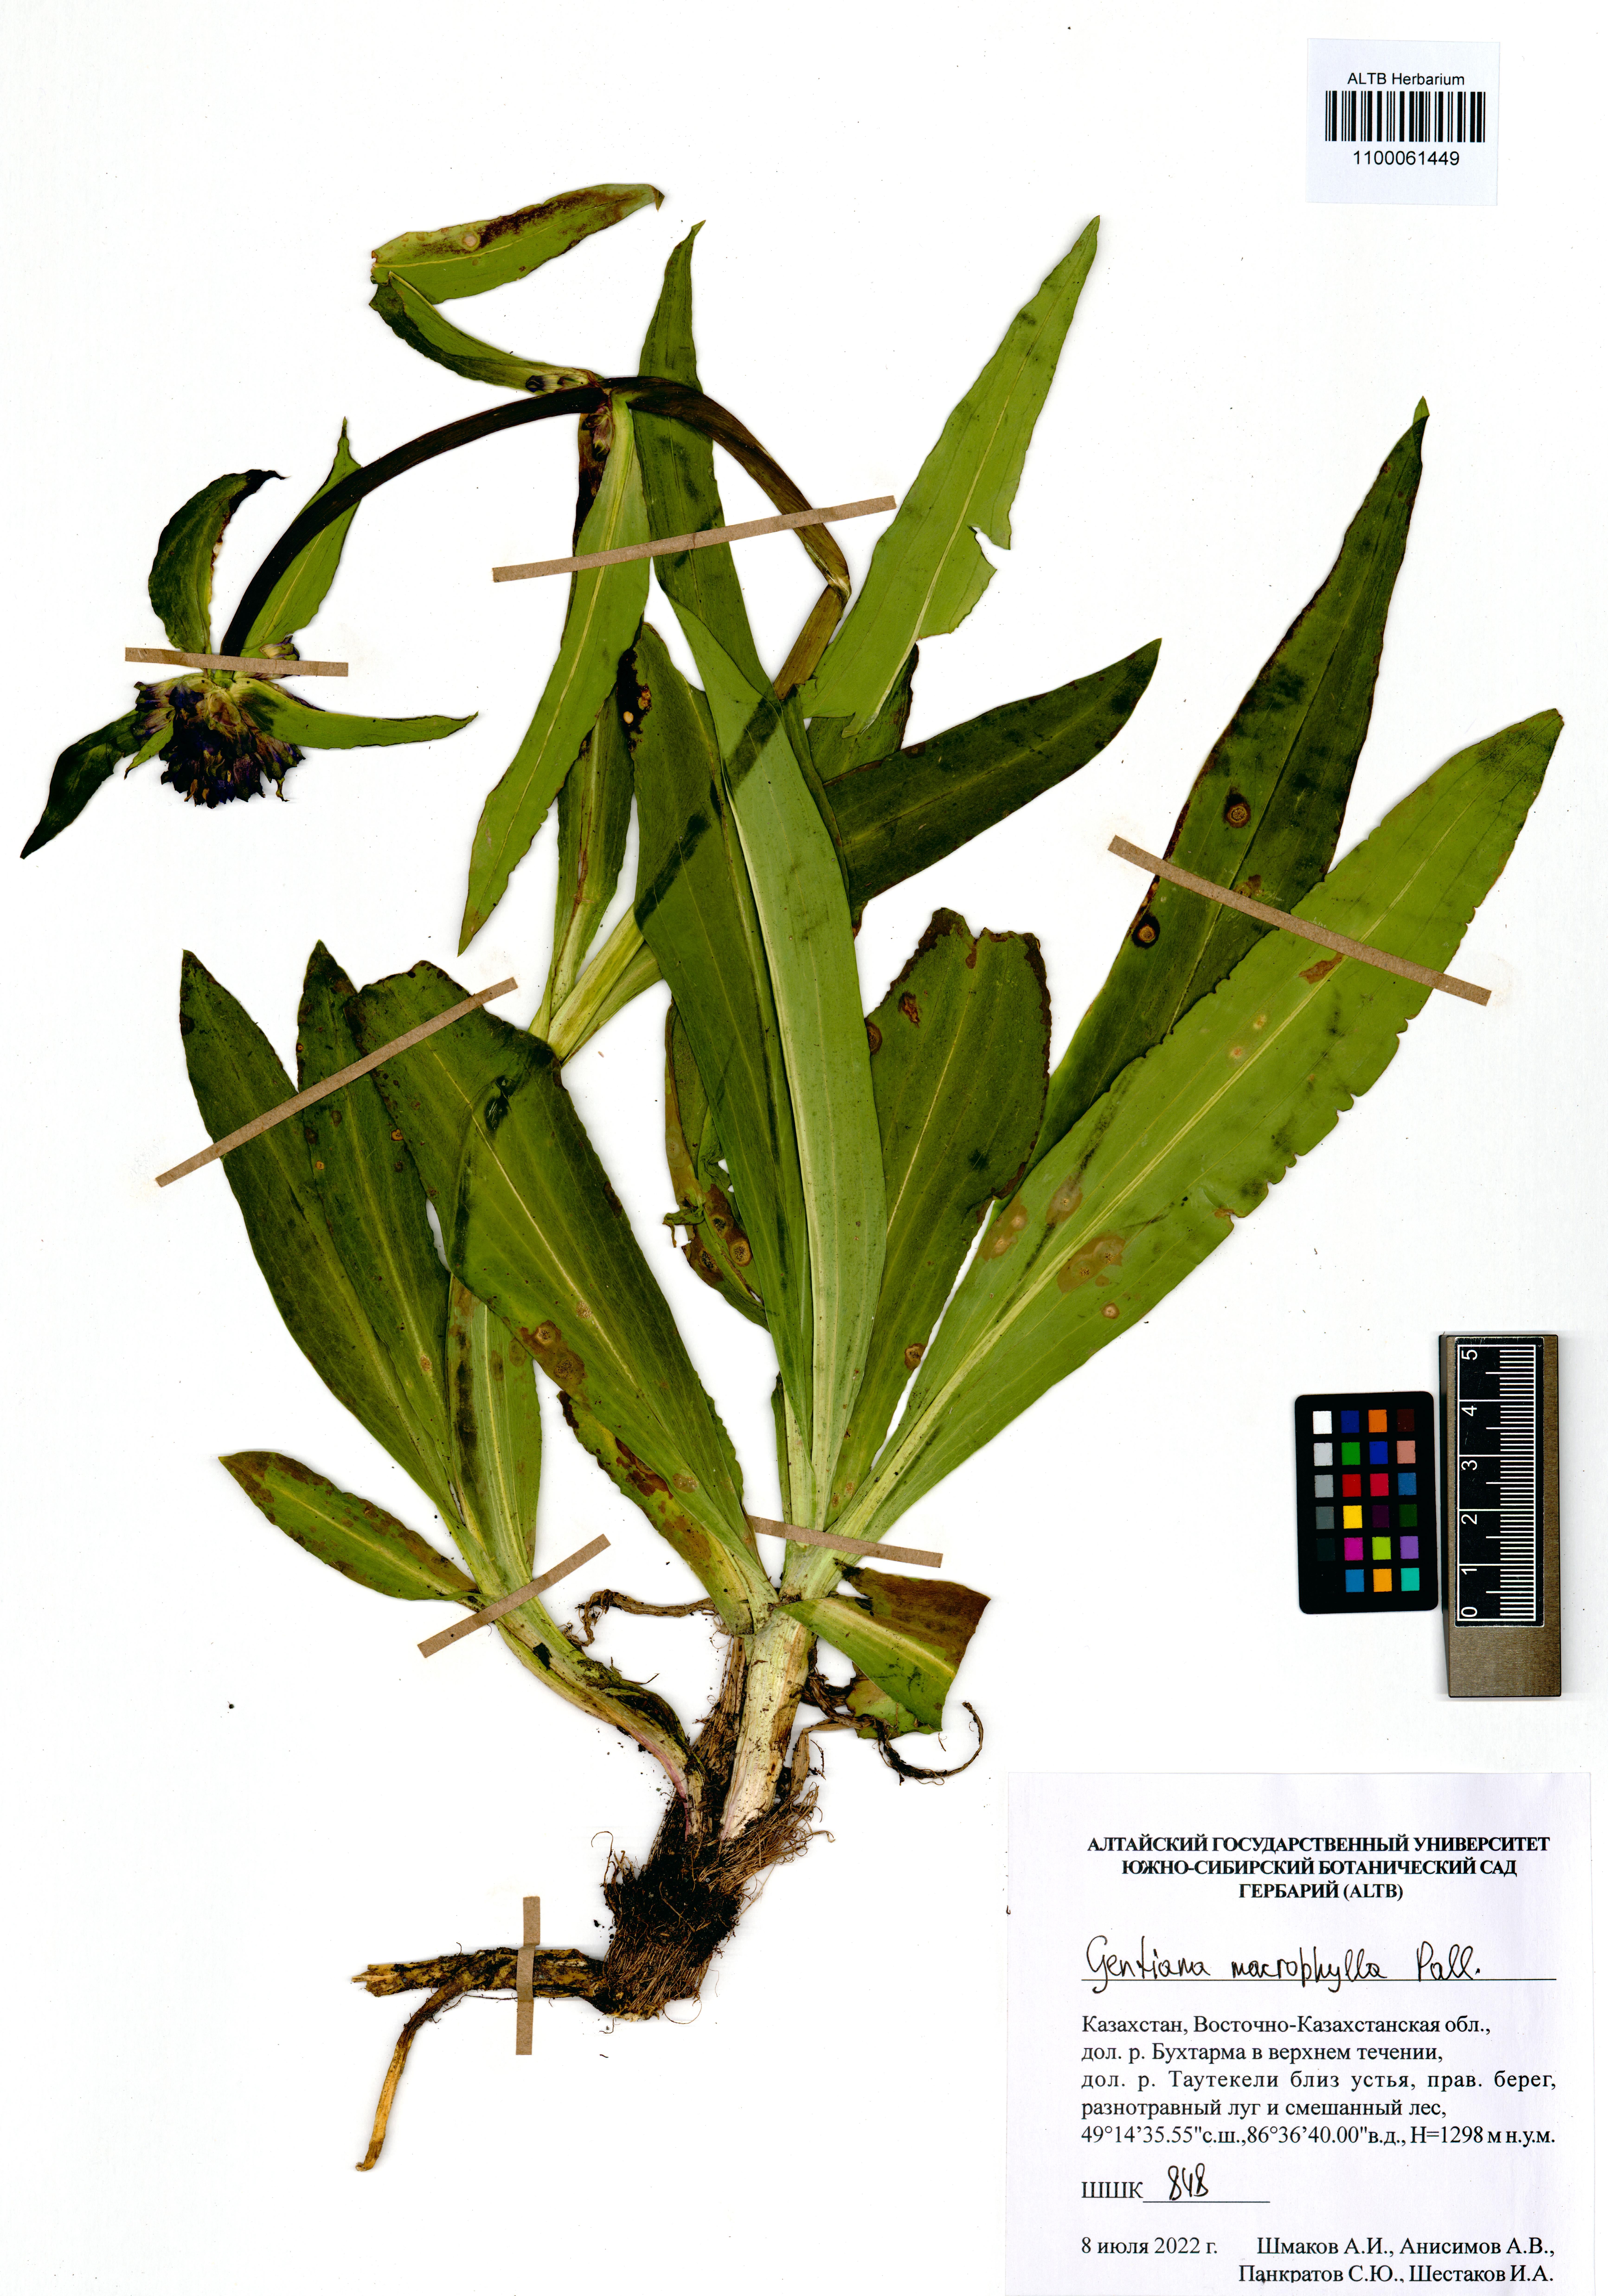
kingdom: Plantae
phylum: Tracheophyta
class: Magnoliopsida
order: Gentianales
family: Gentianaceae
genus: Gentiana
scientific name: Gentiana macrophylla
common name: Large-leaf gentian
